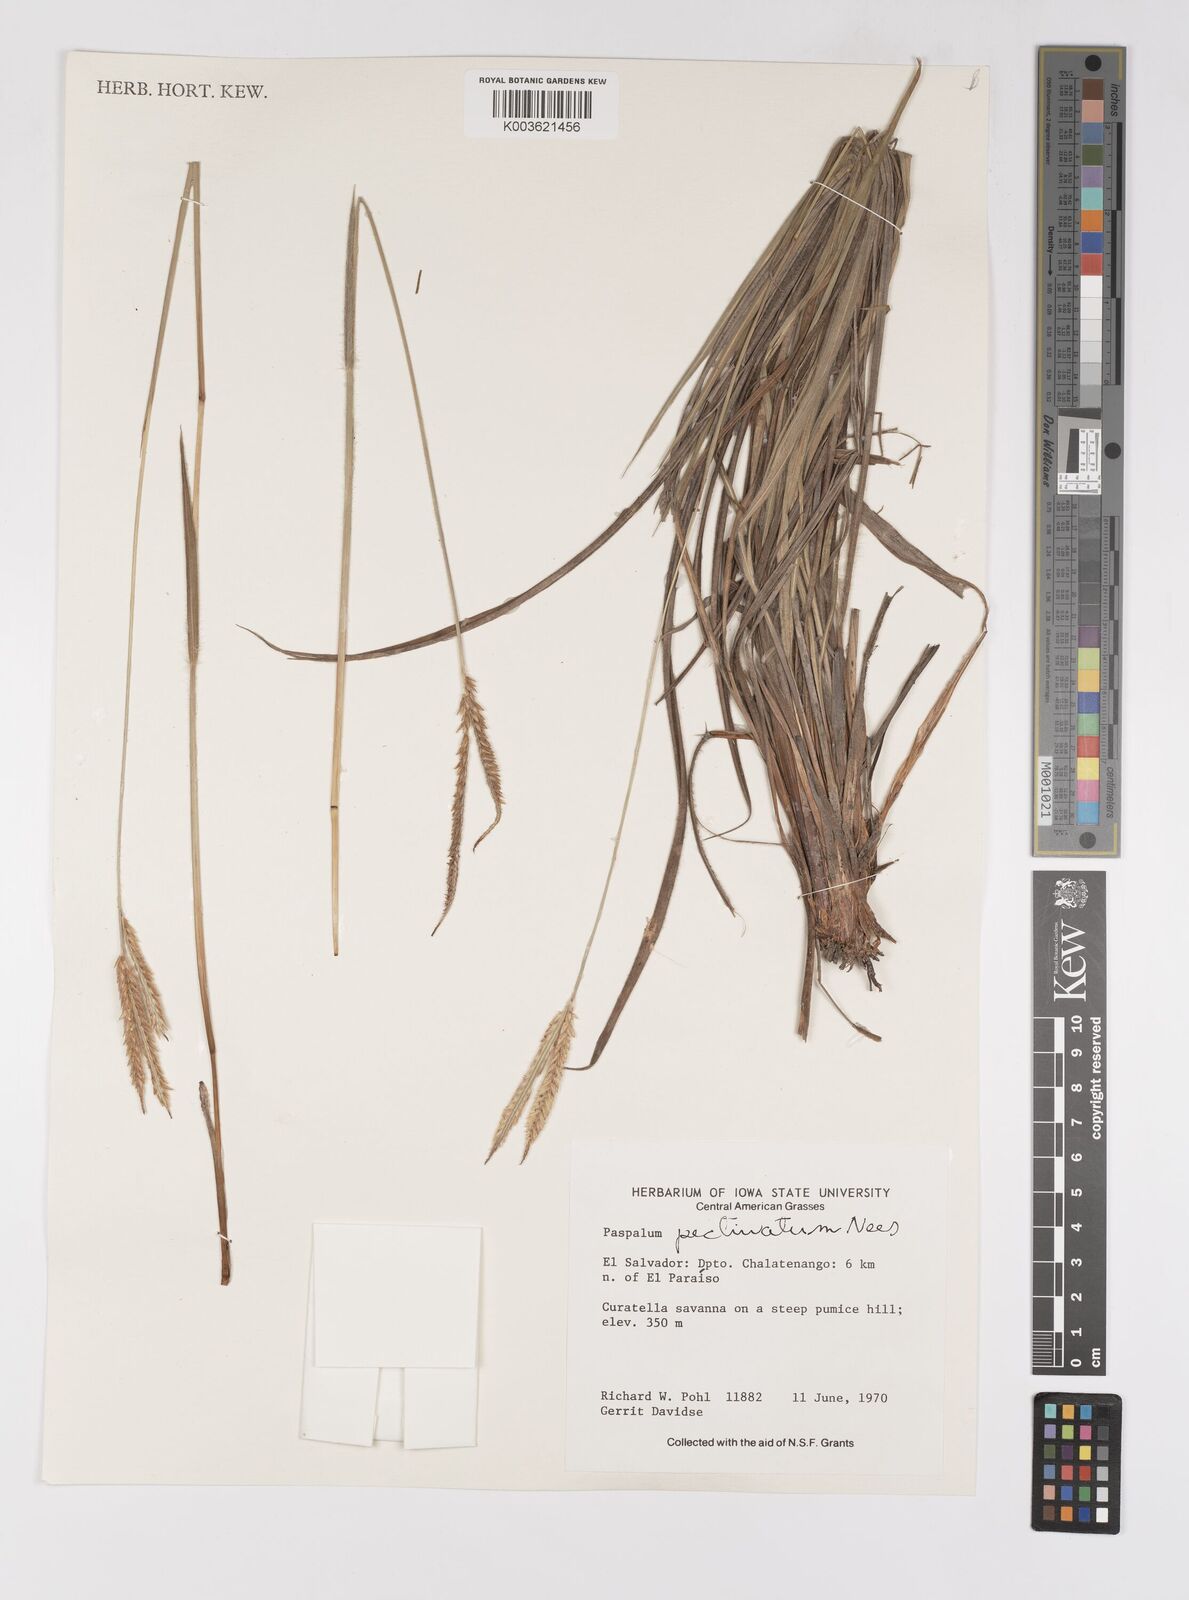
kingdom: Plantae
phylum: Tracheophyta
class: Liliopsida
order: Poales
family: Poaceae
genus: Paspalum
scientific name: Paspalum pectinatum
